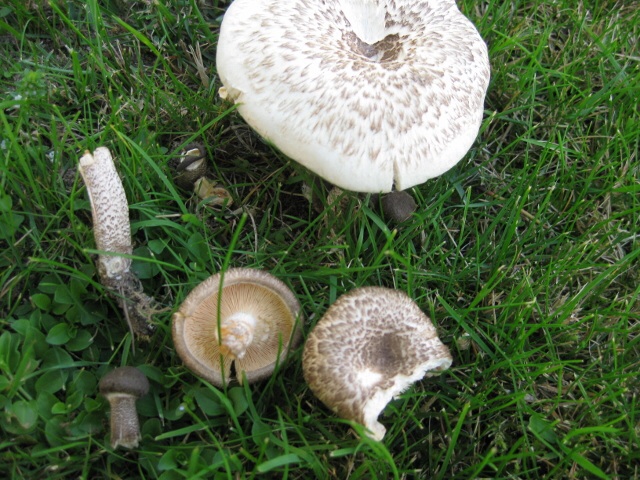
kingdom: Fungi
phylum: Basidiomycota
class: Agaricomycetes
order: Polyporales
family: Polyporaceae
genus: Lentinus
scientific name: Lentinus tigrinus
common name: tigerhat
